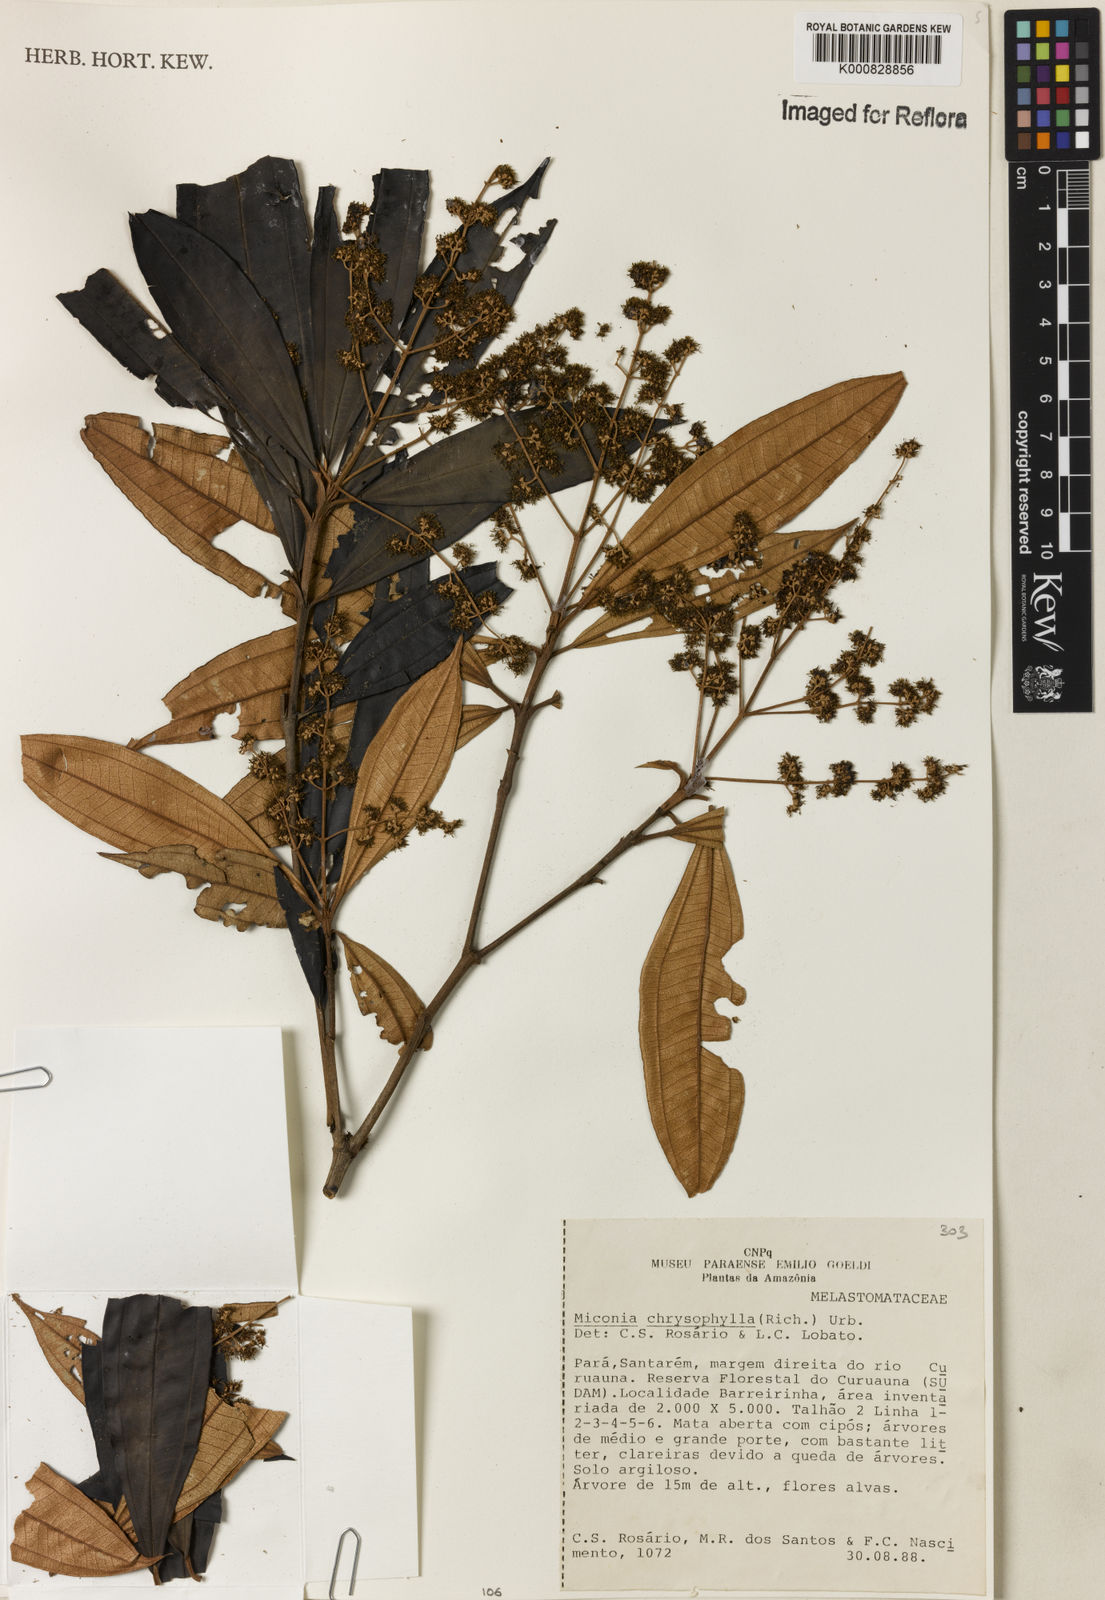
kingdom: Plantae
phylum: Tracheophyta
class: Magnoliopsida
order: Myrtales
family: Melastomataceae
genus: Miconia
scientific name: Miconia chrysophylla
